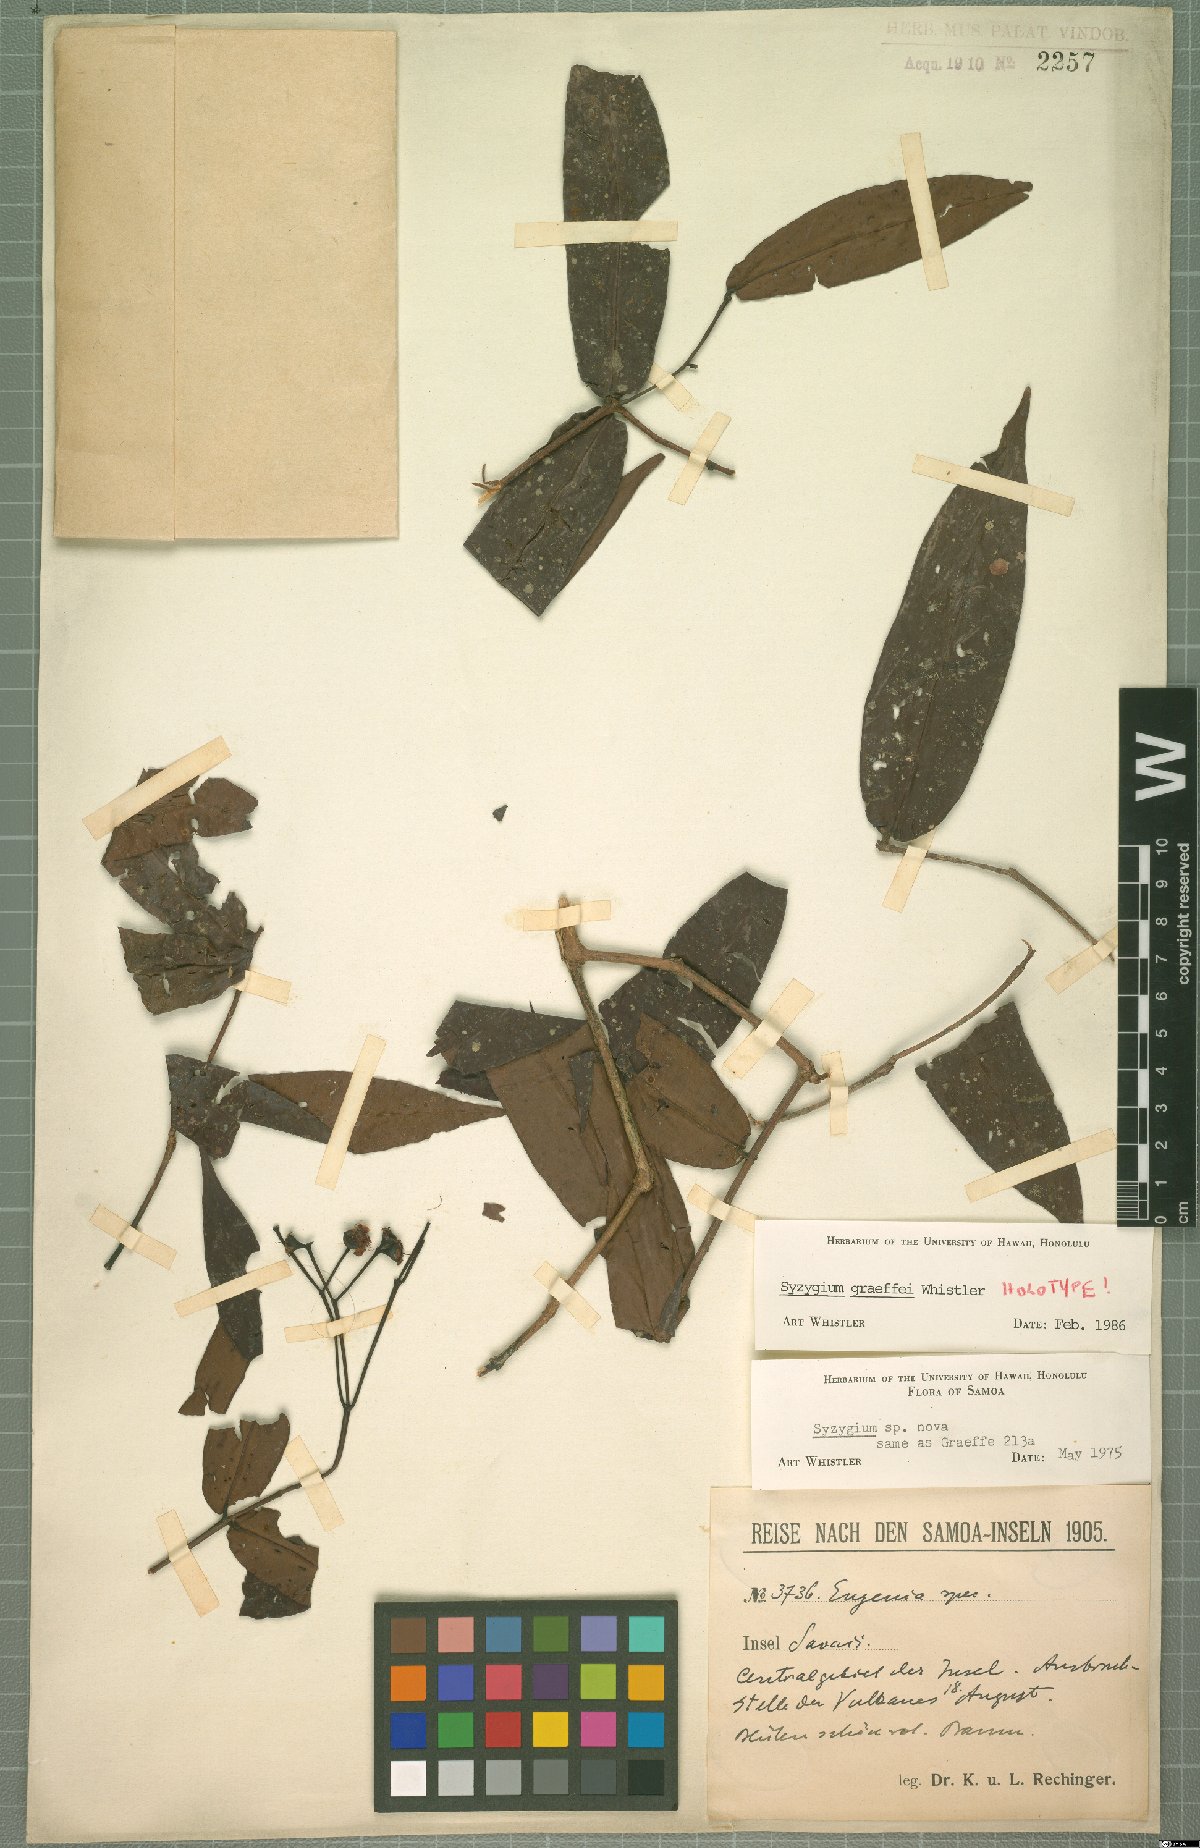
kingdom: Plantae
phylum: Tracheophyta
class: Magnoliopsida
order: Myrtales
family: Myrtaceae
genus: Syzygium
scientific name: Syzygium graeffei
